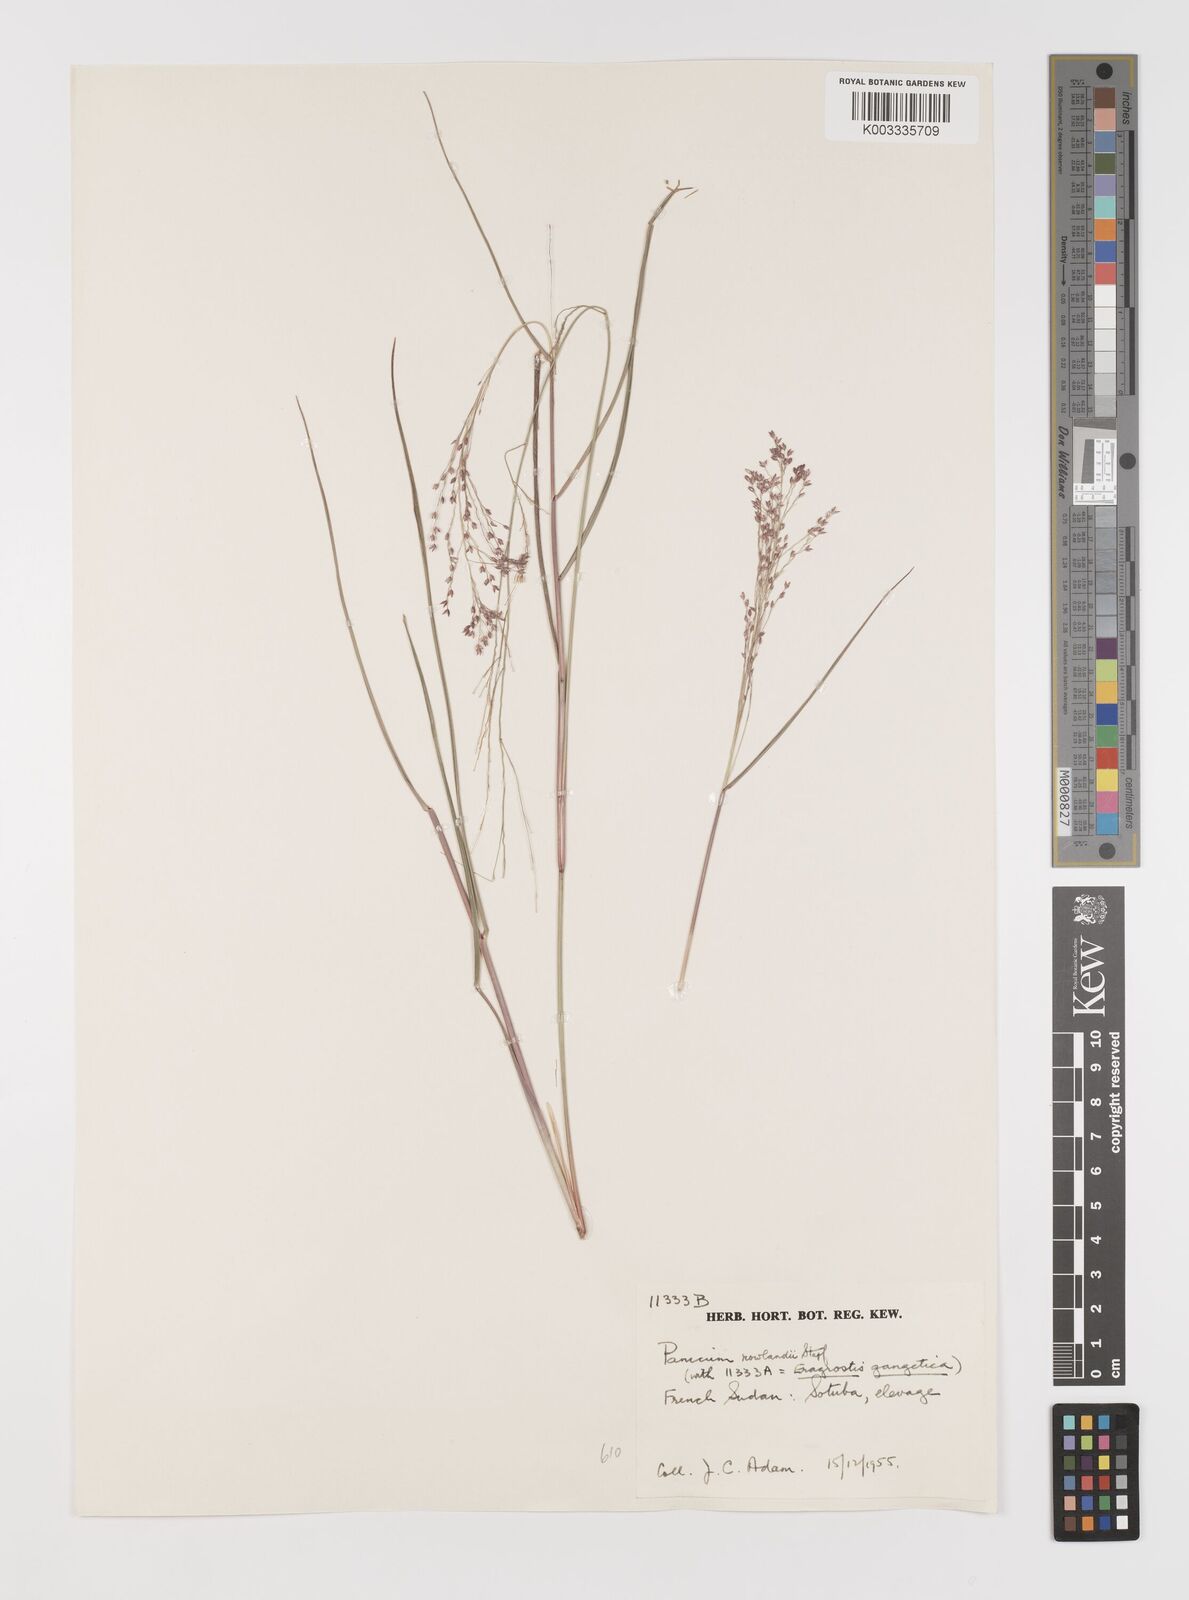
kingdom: Plantae
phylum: Tracheophyta
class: Liliopsida
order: Poales
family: Poaceae
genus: Panicum
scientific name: Panicum fluviicola
